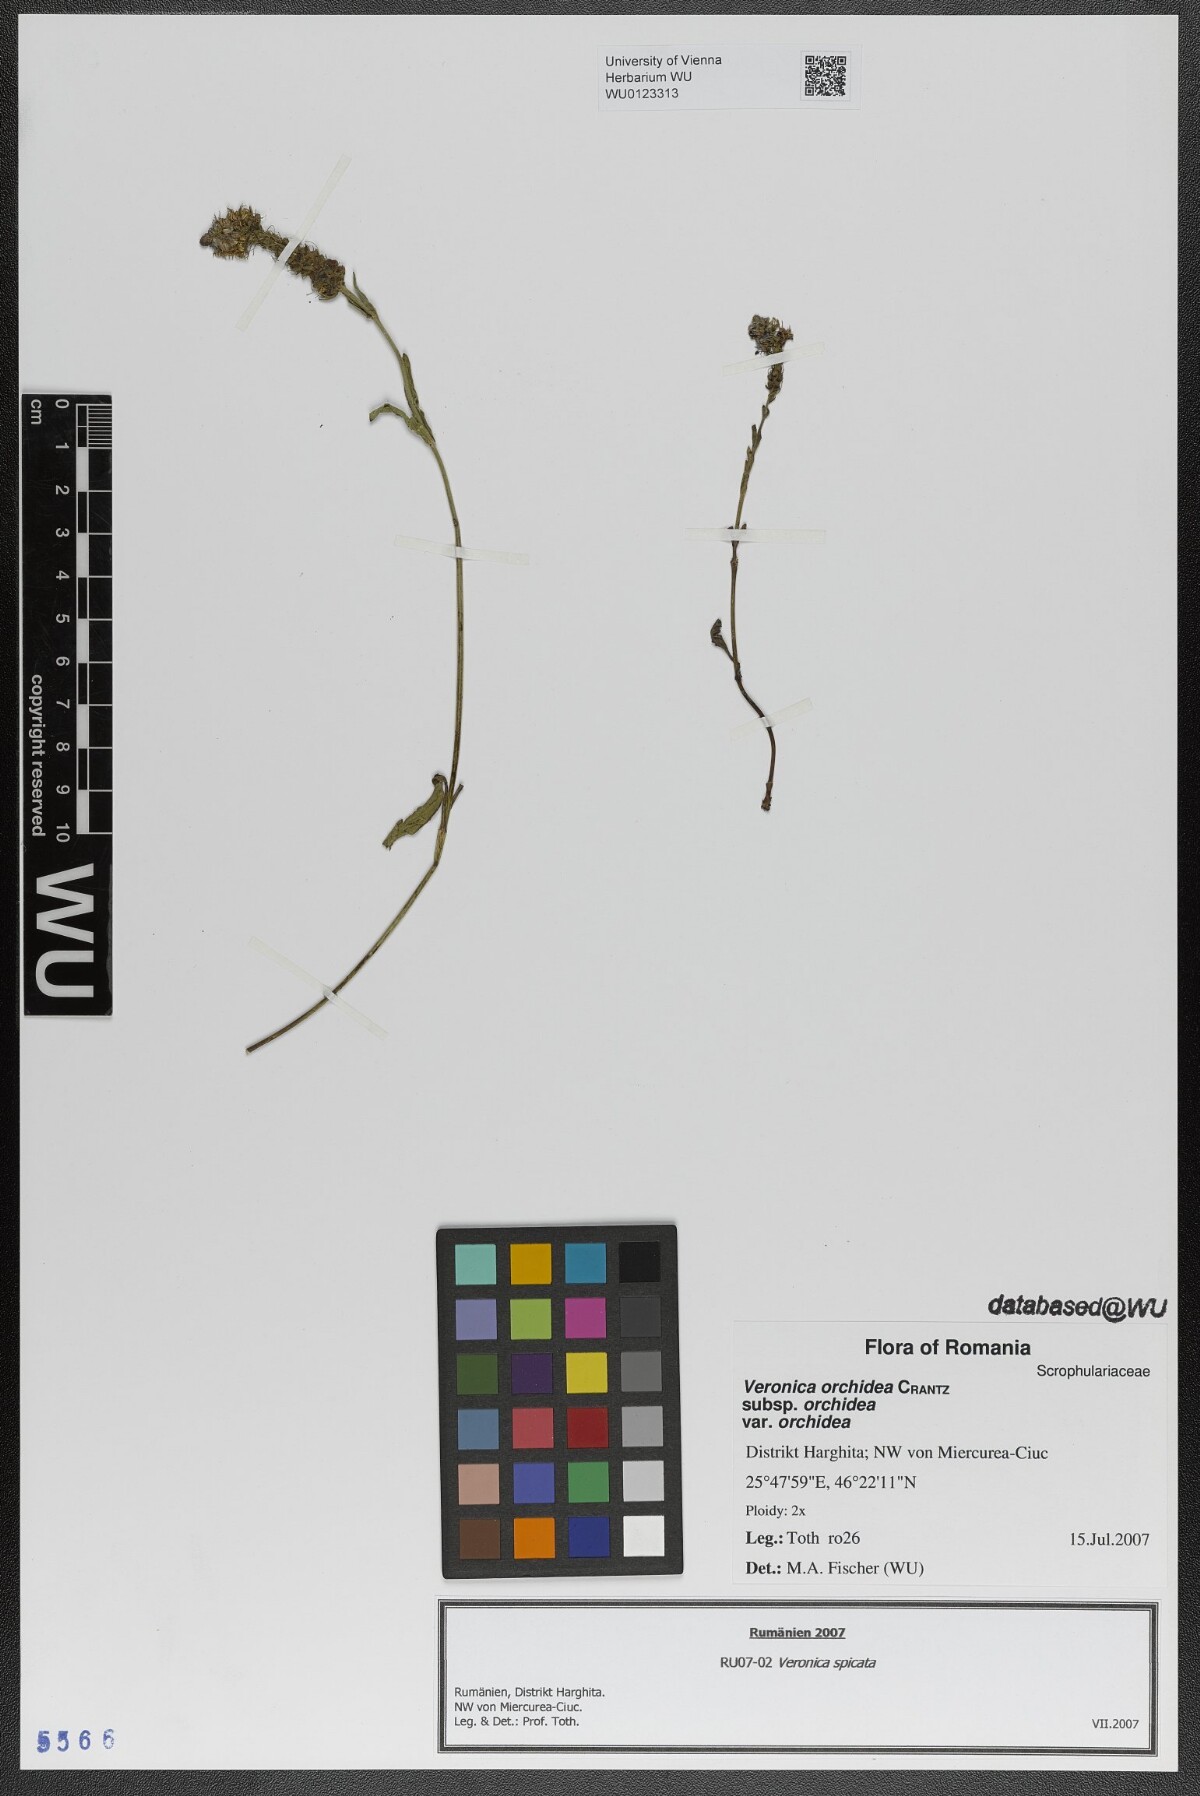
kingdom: Plantae
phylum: Tracheophyta
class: Magnoliopsida
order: Lamiales
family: Plantaginaceae
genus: Veronica
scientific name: Veronica orchidea
